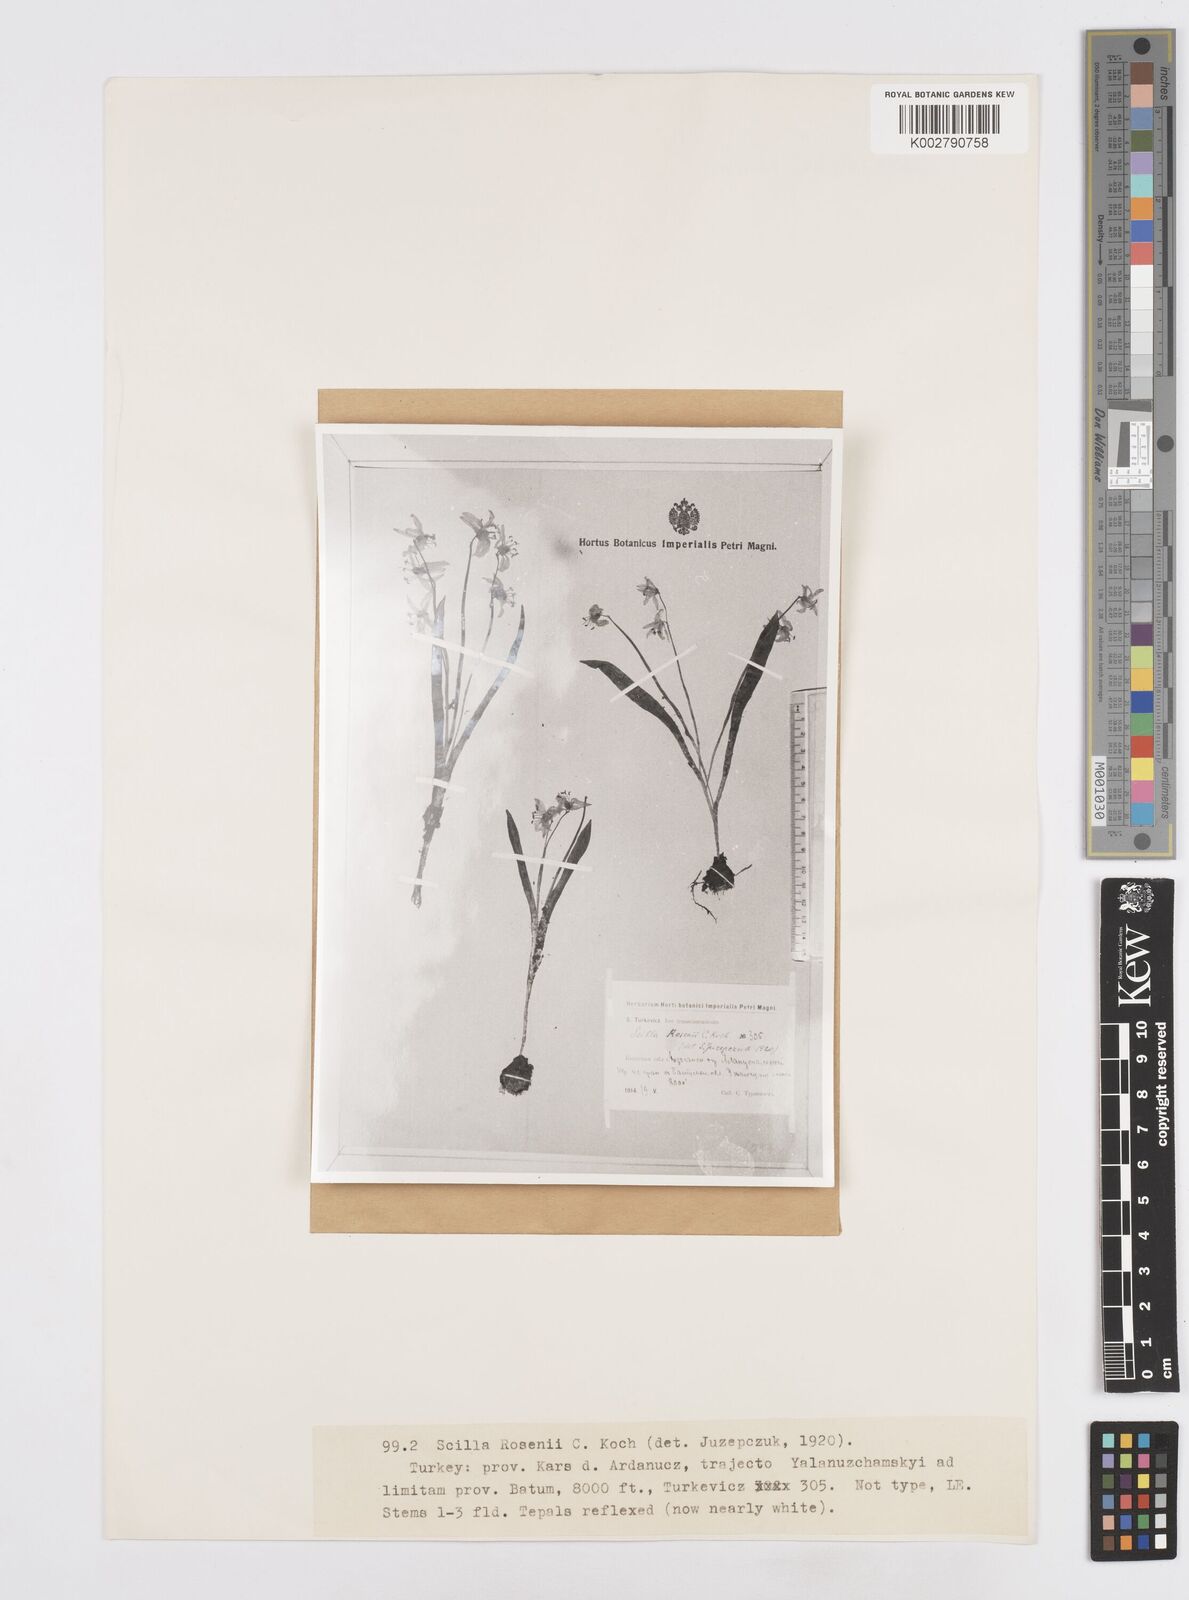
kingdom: Plantae
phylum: Tracheophyta
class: Liliopsida
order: Asparagales
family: Asparagaceae
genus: Scilla
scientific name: Scilla rosenii
